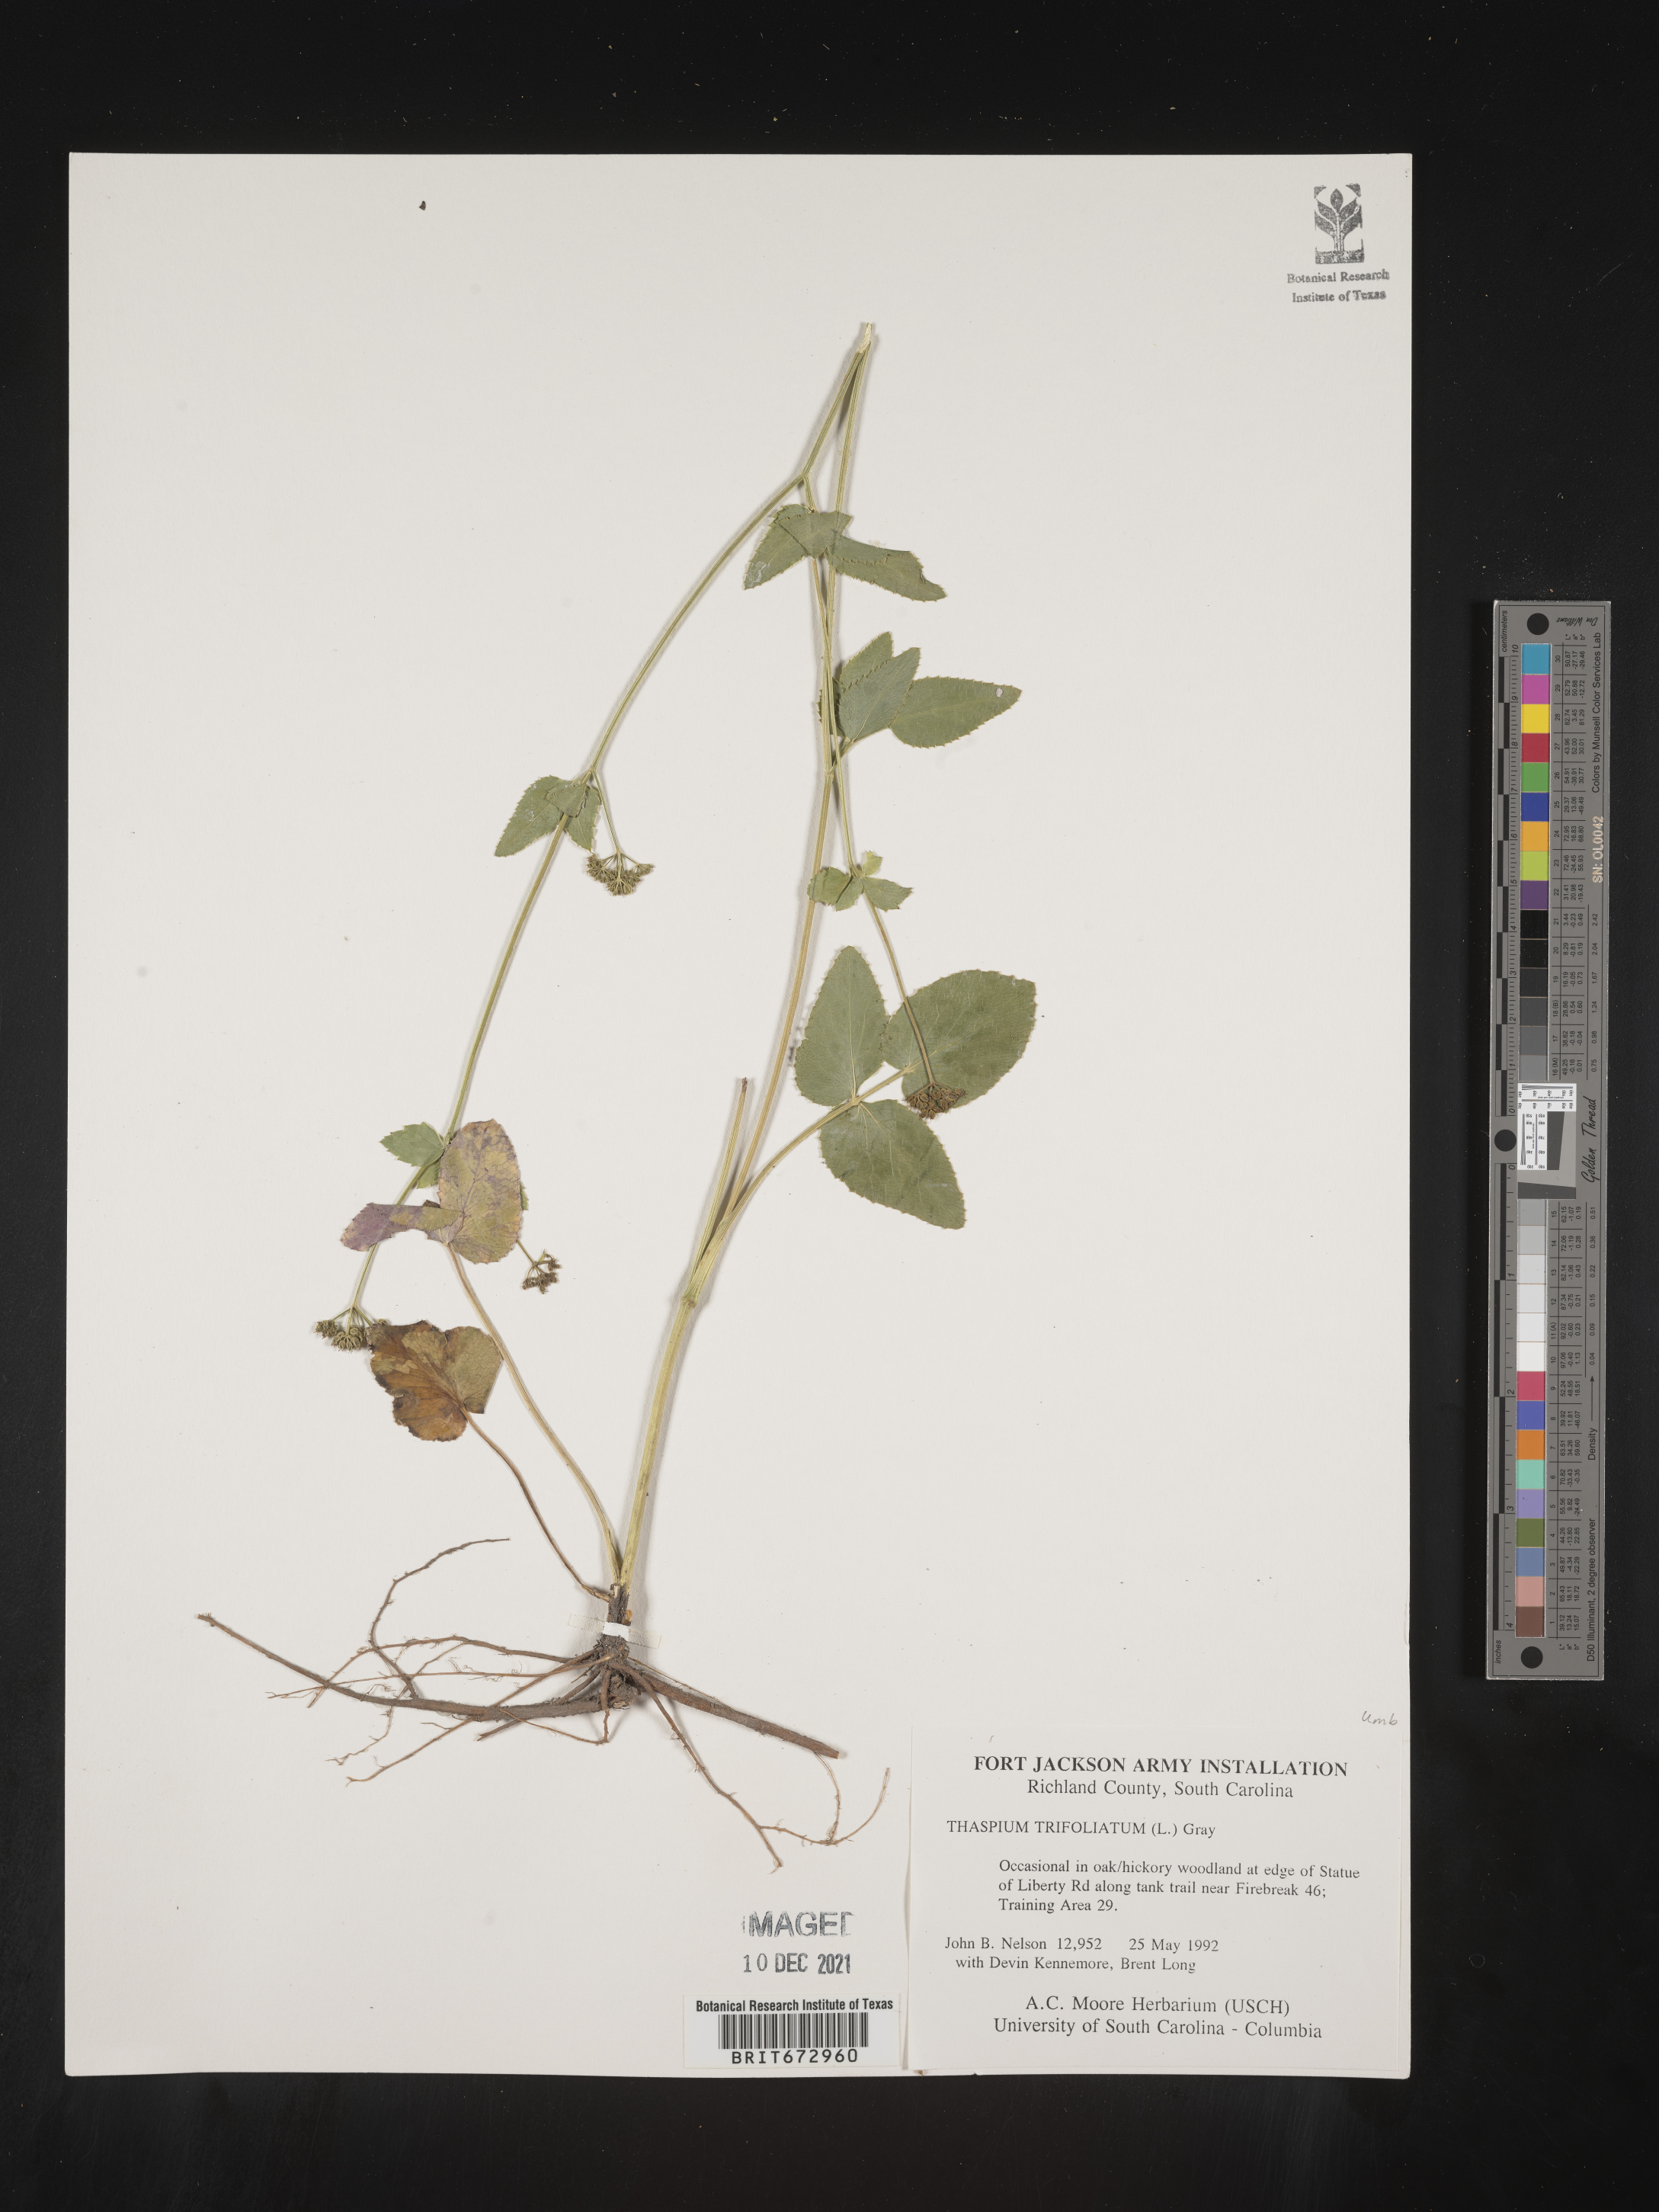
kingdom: Plantae
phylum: Tracheophyta
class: Magnoliopsida
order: Apiales
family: Apiaceae
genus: Thaspium
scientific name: Thaspium
